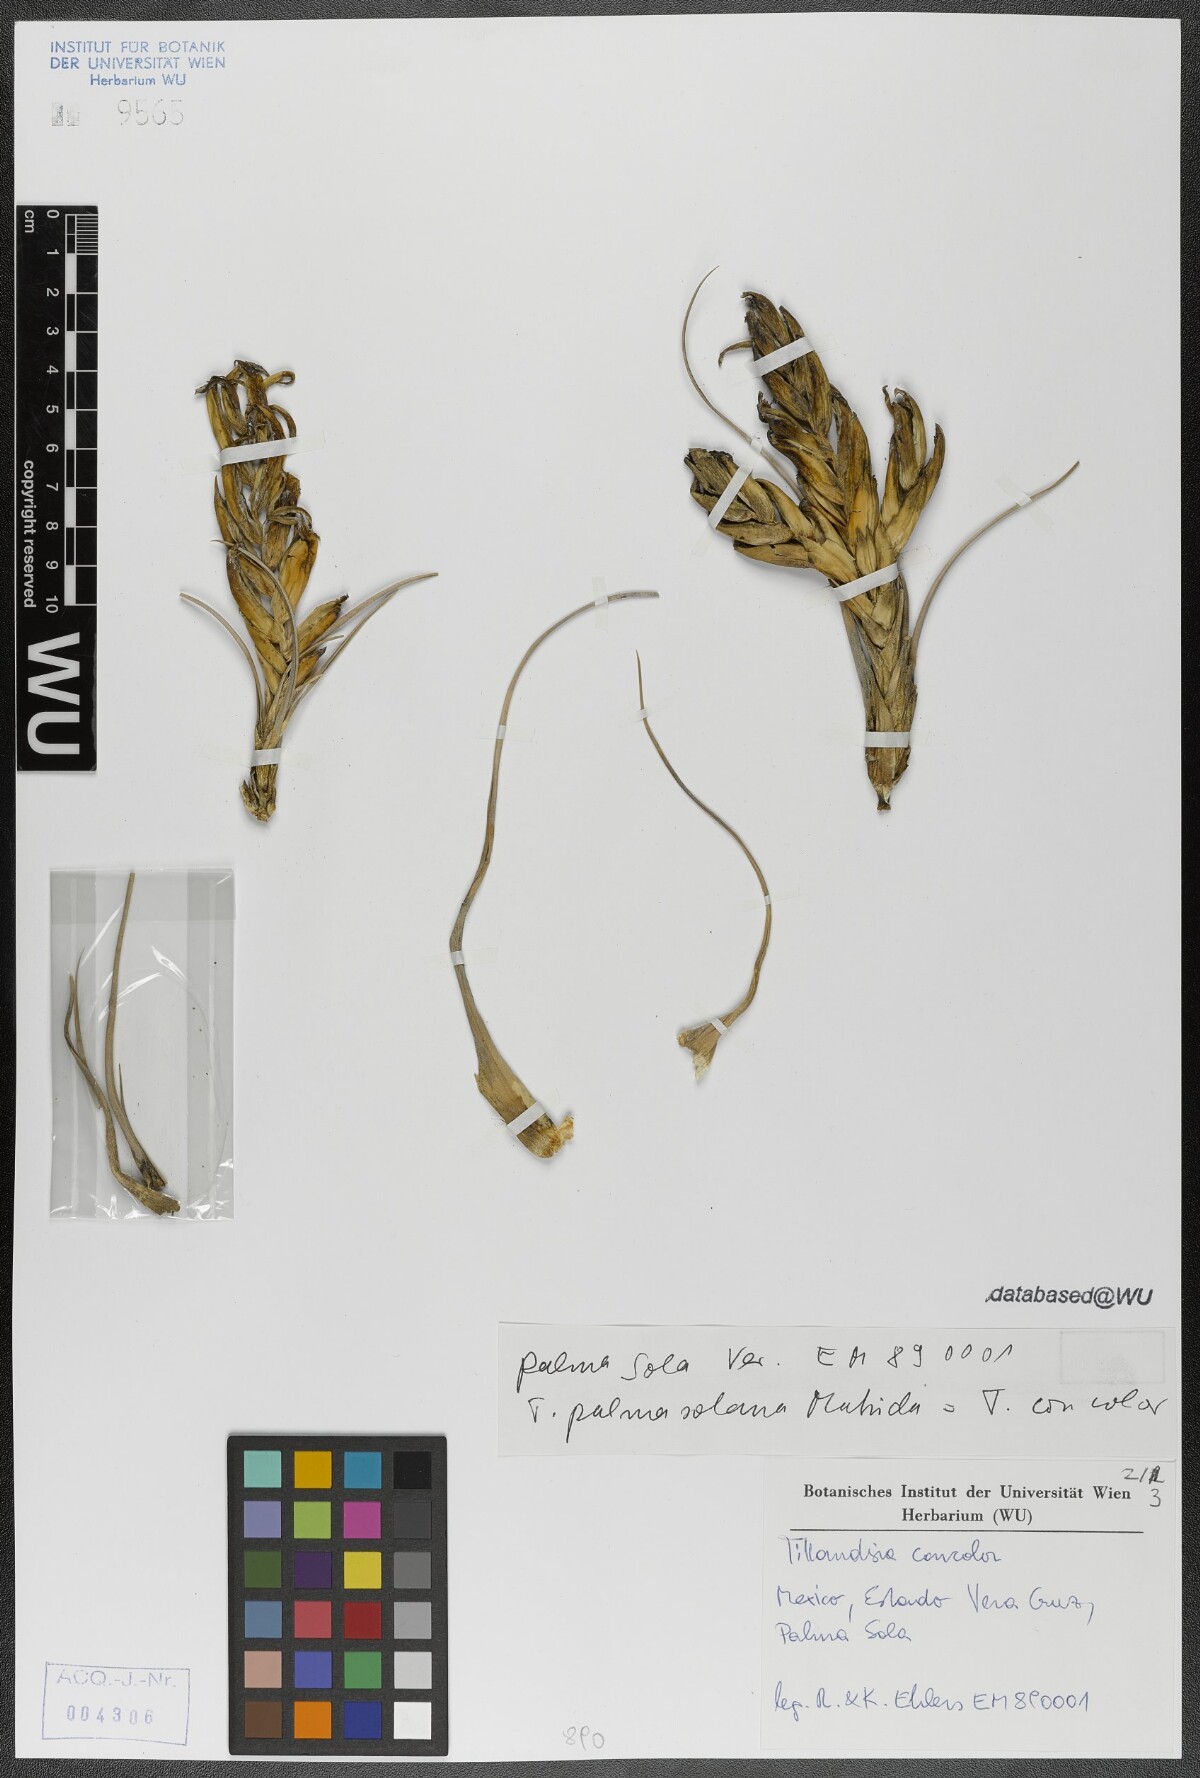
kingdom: Plantae
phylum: Tracheophyta
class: Liliopsida
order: Poales
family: Bromeliaceae
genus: Tillandsia
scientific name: Tillandsia concolor
